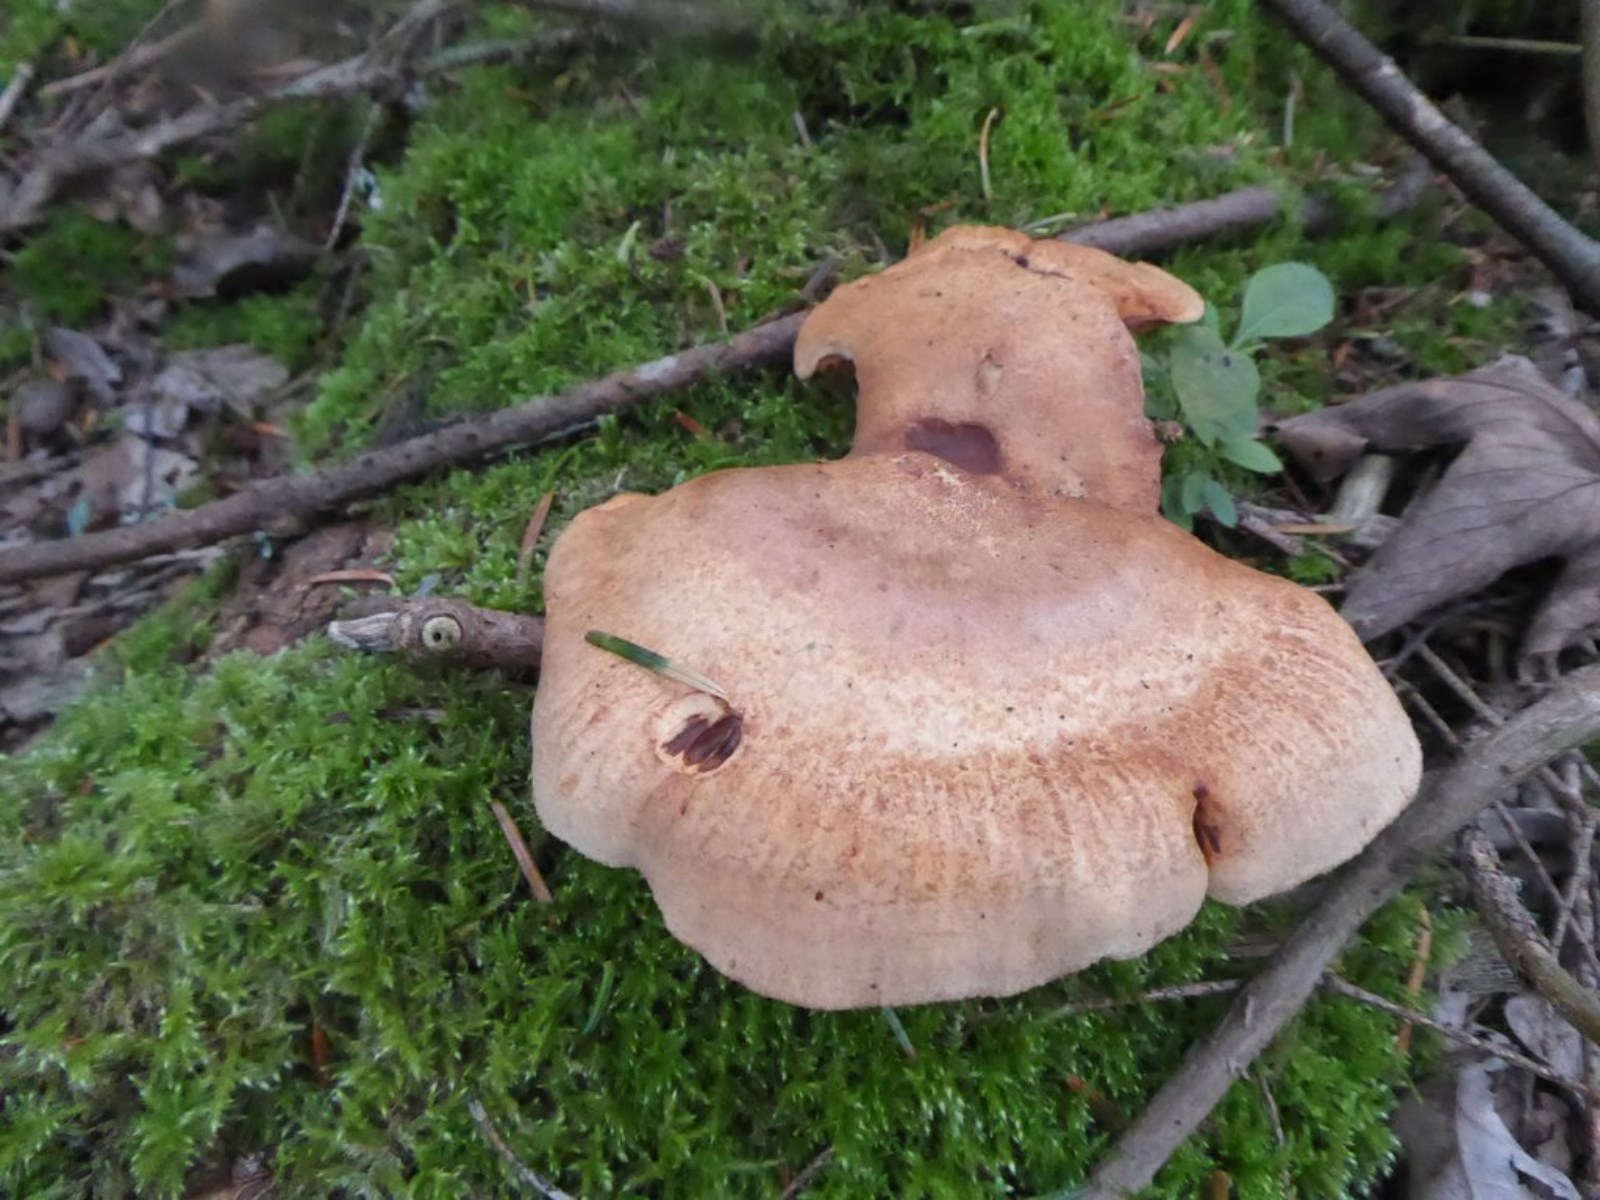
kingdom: Fungi
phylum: Basidiomycota
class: Agaricomycetes
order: Boletales
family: Paxillaceae
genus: Paxillus
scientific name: Paxillus involutus
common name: almindelig netbladhat
